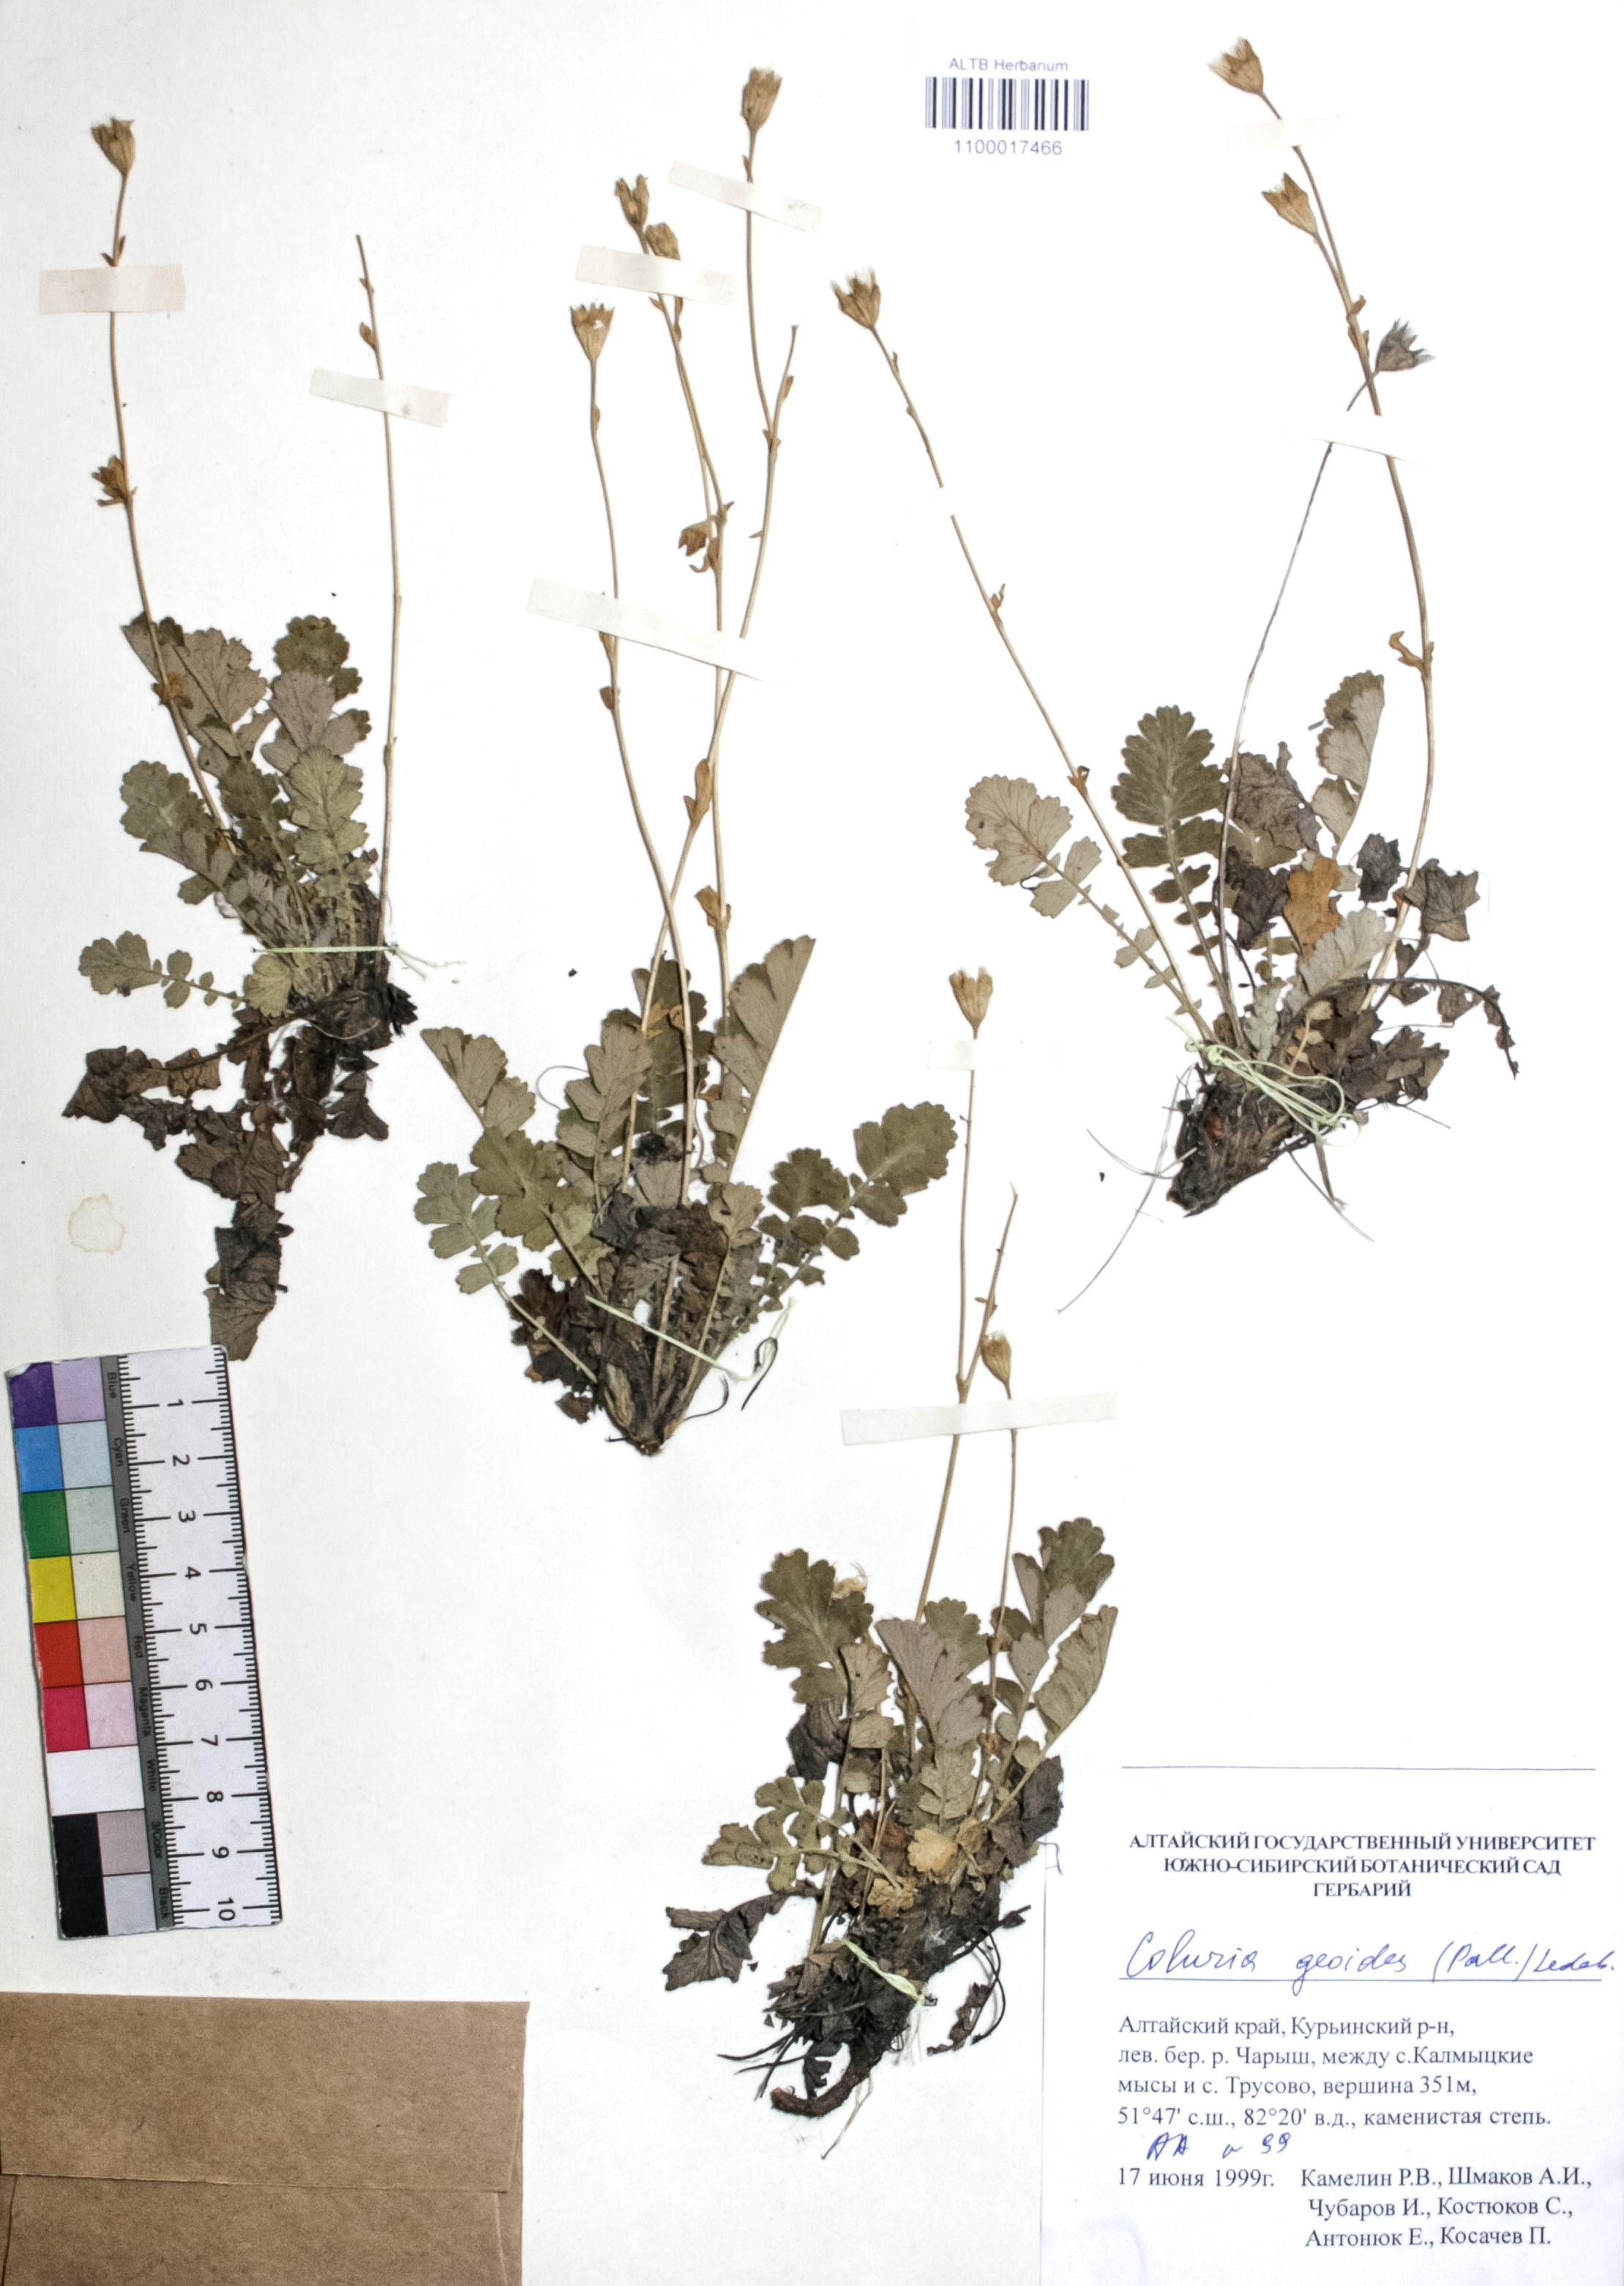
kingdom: Plantae
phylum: Tracheophyta
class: Magnoliopsida
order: Rosales
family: Rosaceae
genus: Geum
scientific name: Geum geoides
